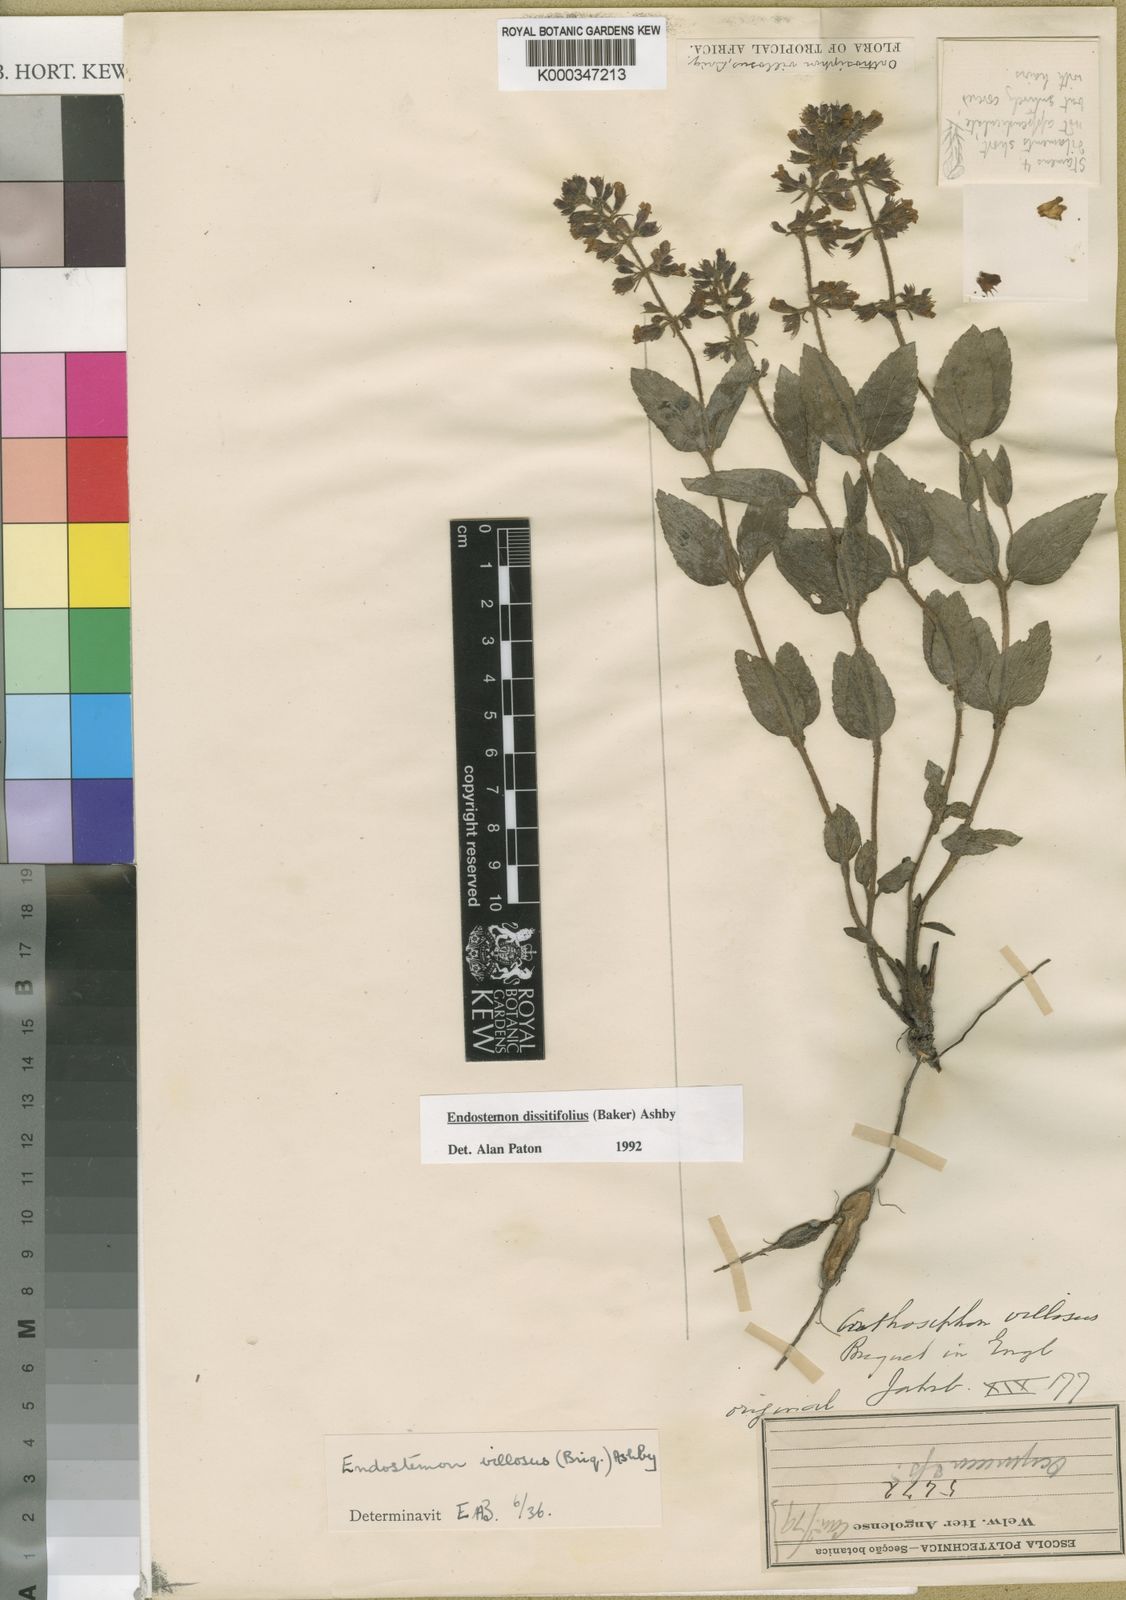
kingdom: Plantae
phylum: Tracheophyta
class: Magnoliopsida
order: Lamiales
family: Lamiaceae
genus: Endostemon
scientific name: Endostemon villosus
